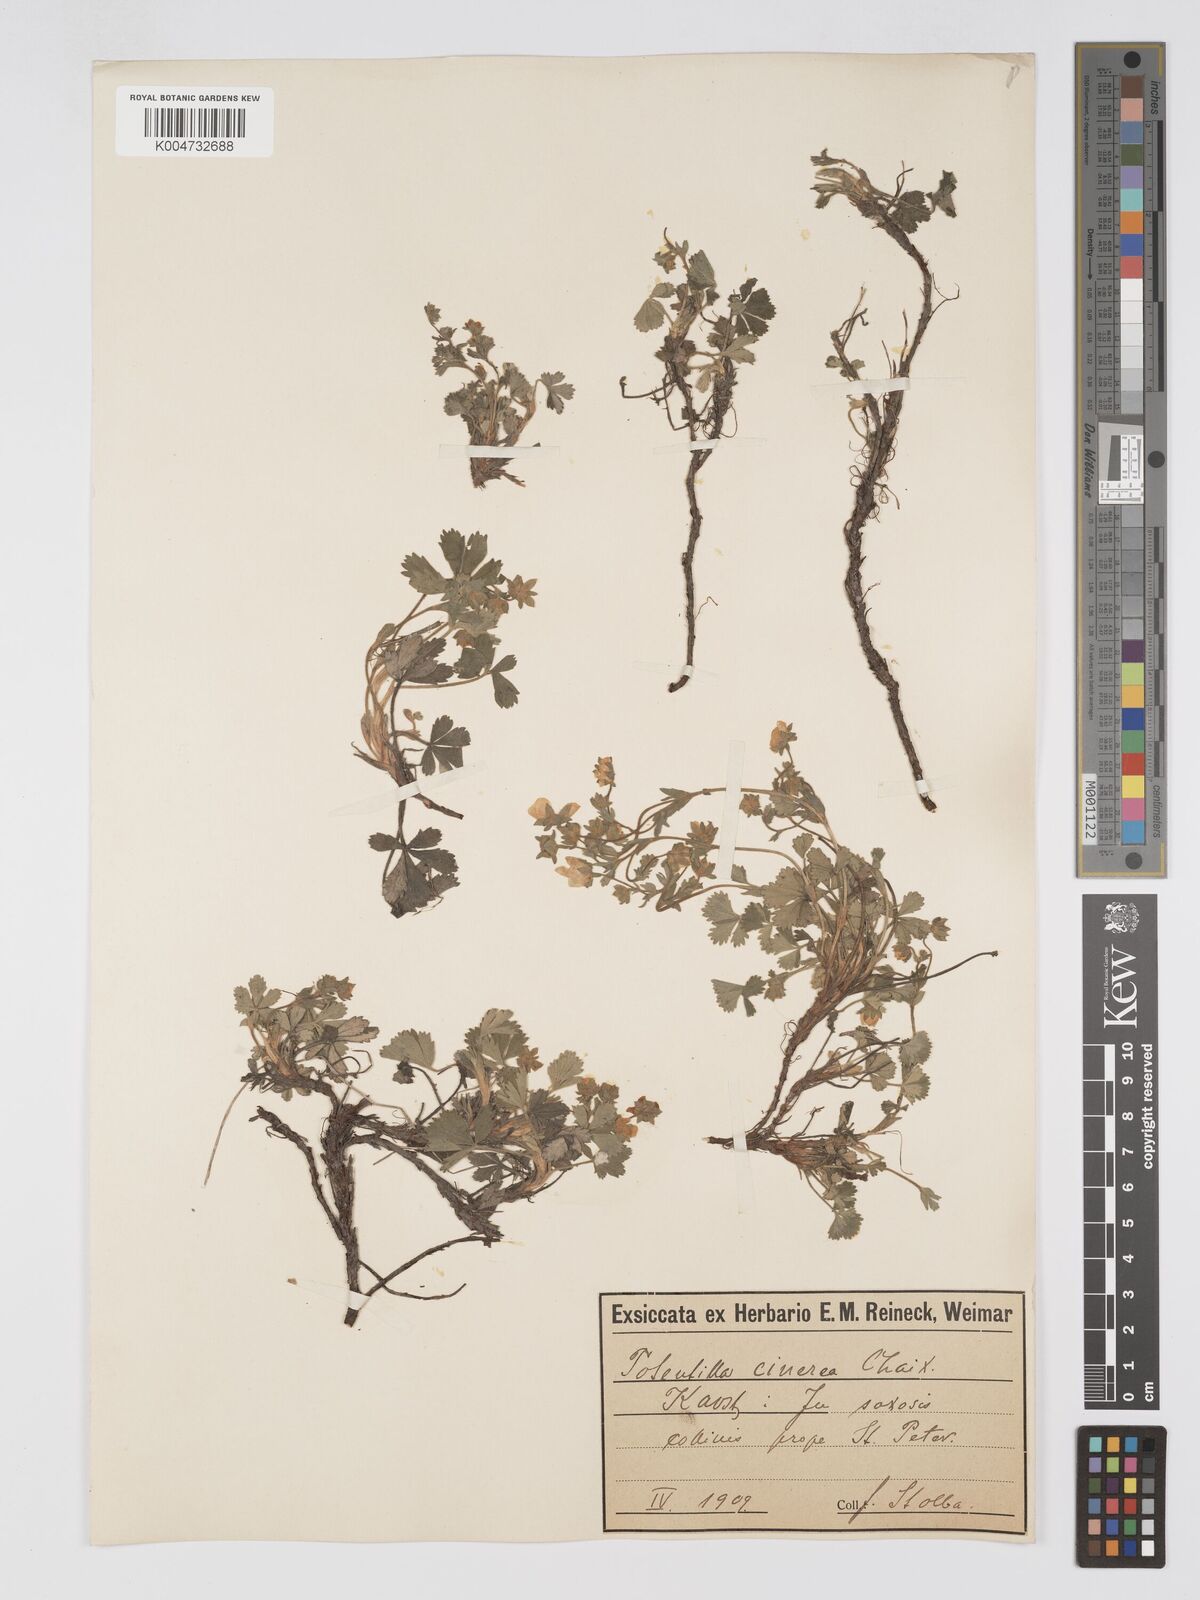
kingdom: Plantae
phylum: Tracheophyta
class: Magnoliopsida
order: Rosales
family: Rosaceae
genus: Potentilla
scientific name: Potentilla cinerea
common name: Ashy cinquefoil
